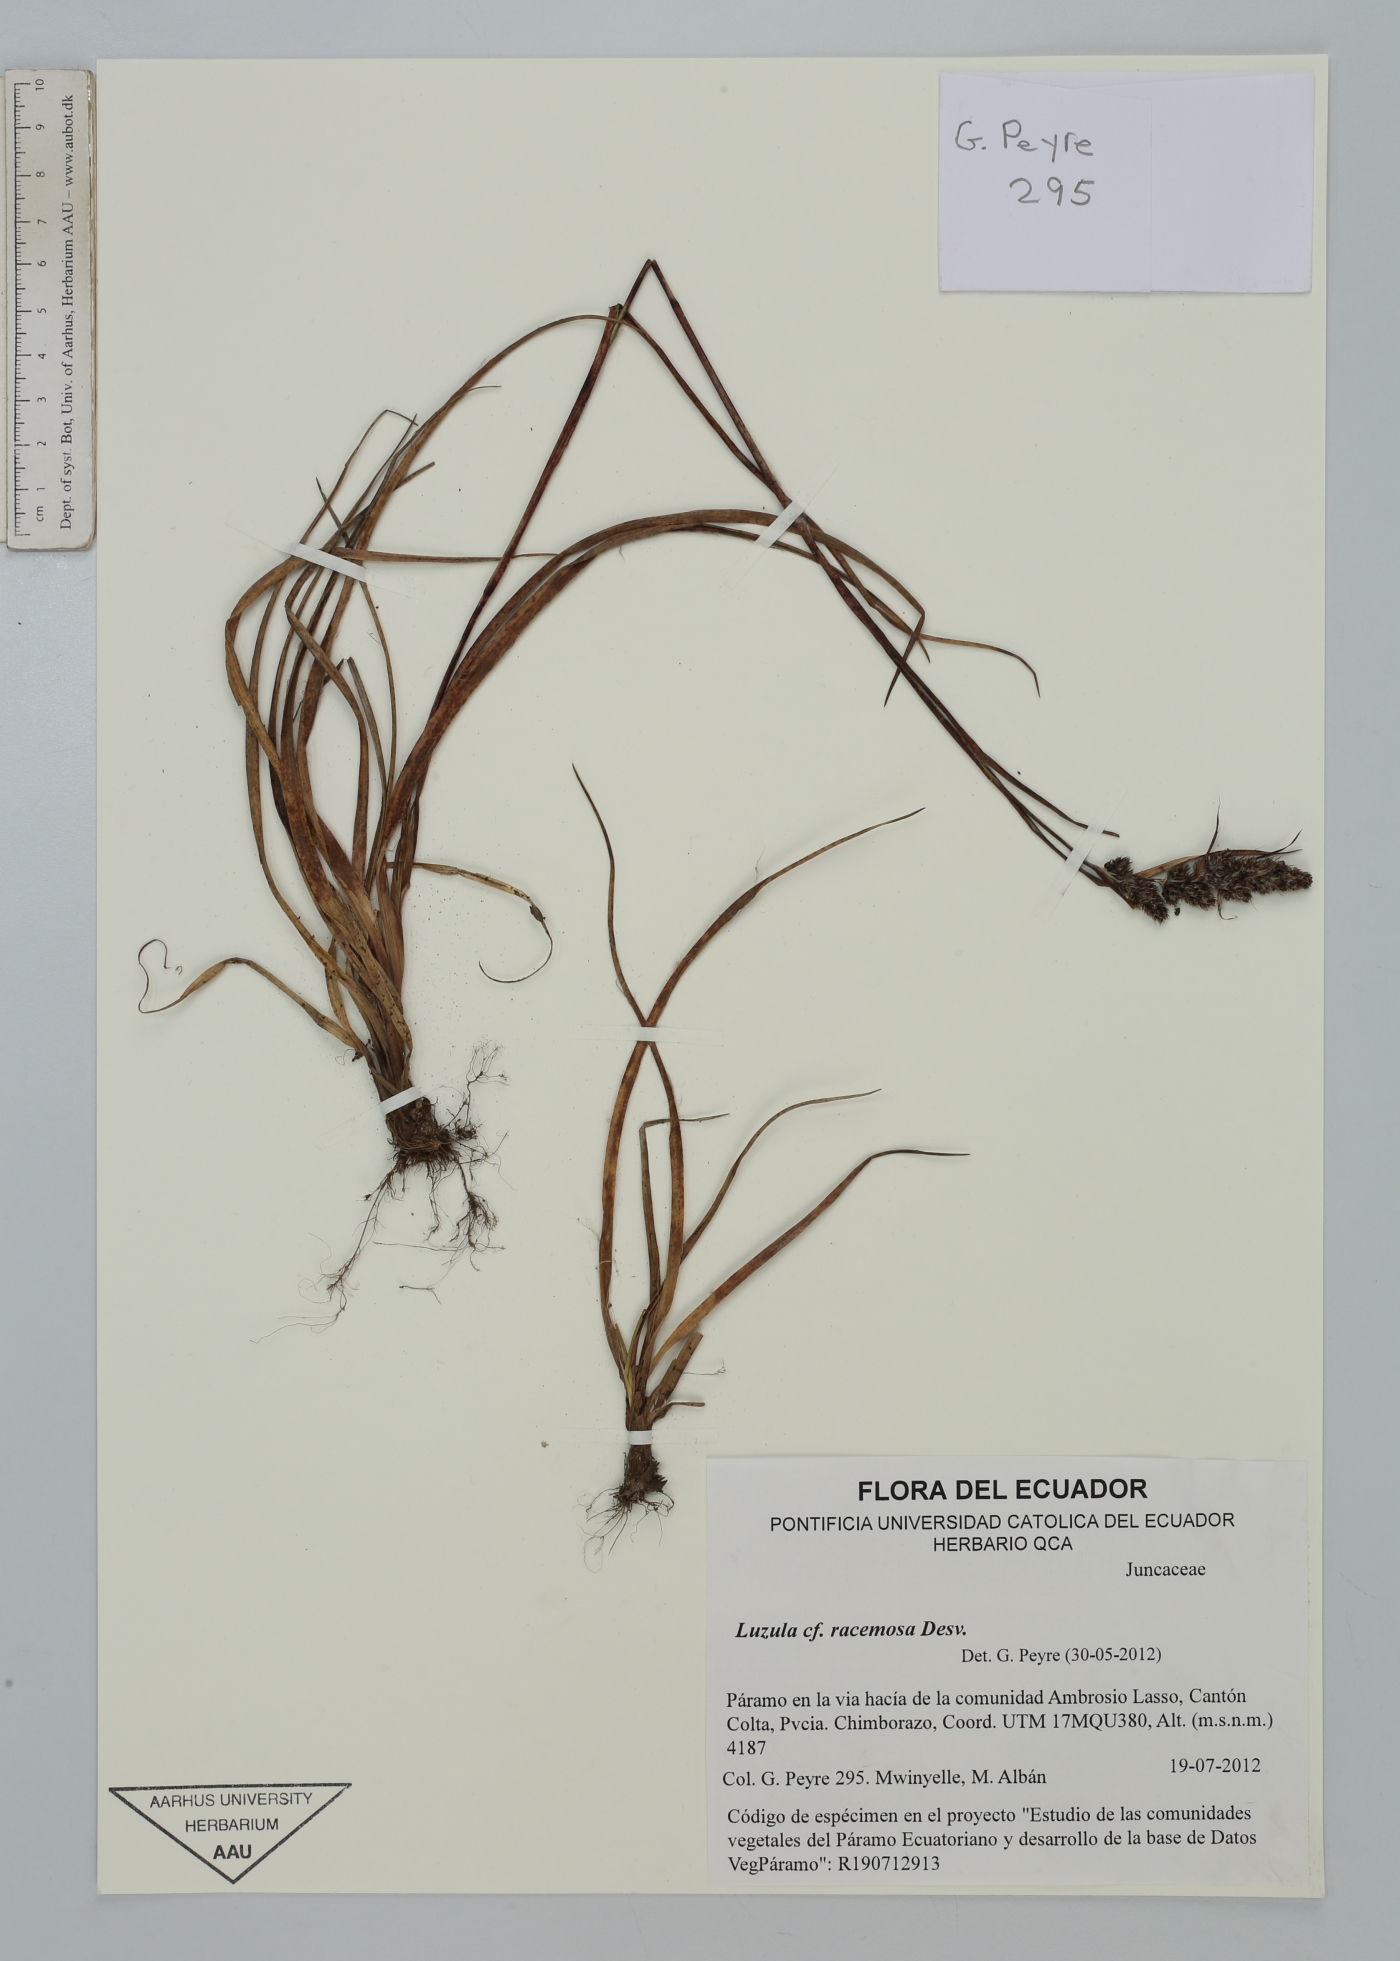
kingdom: Plantae
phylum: Tracheophyta
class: Liliopsida
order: Poales
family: Juncaceae
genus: Luzula
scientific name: Luzula racemosa
